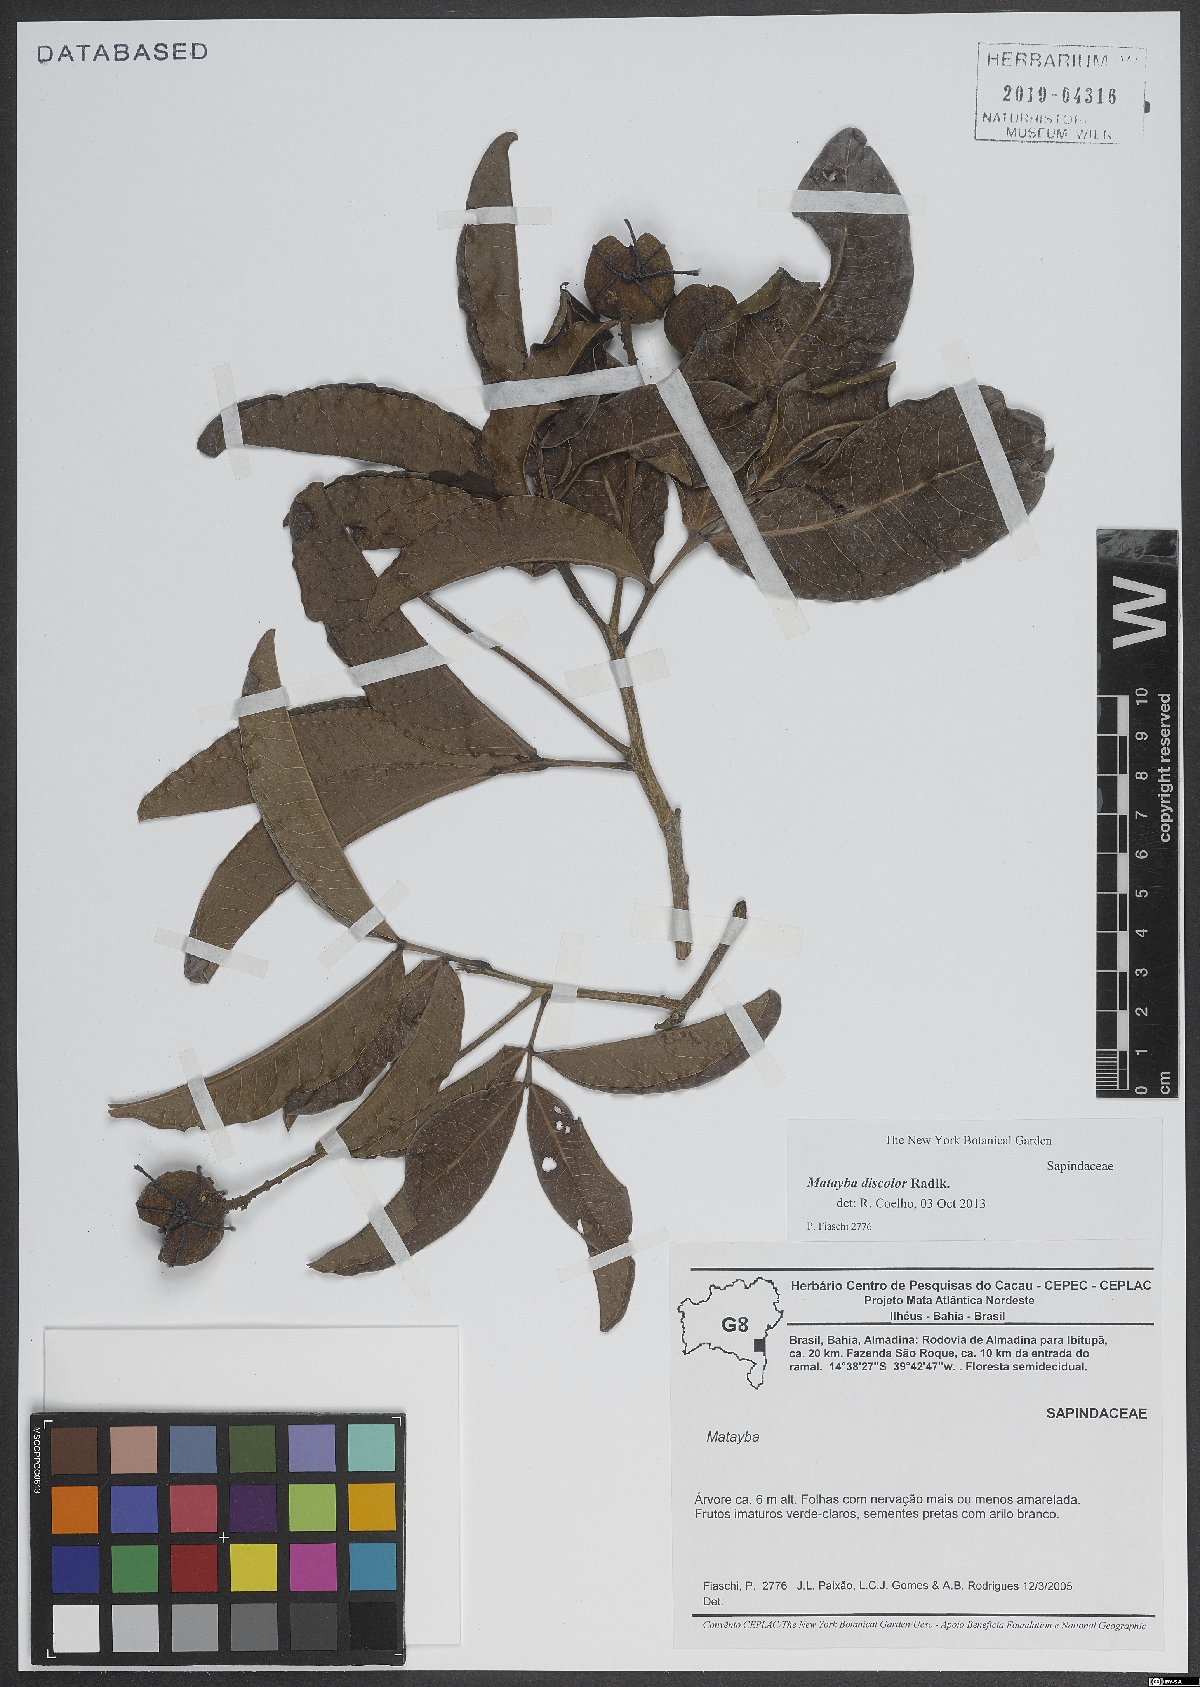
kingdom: Plantae
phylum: Tracheophyta
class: Magnoliopsida
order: Sapindales
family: Sapindaceae
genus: Matayba
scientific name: Matayba discolor
